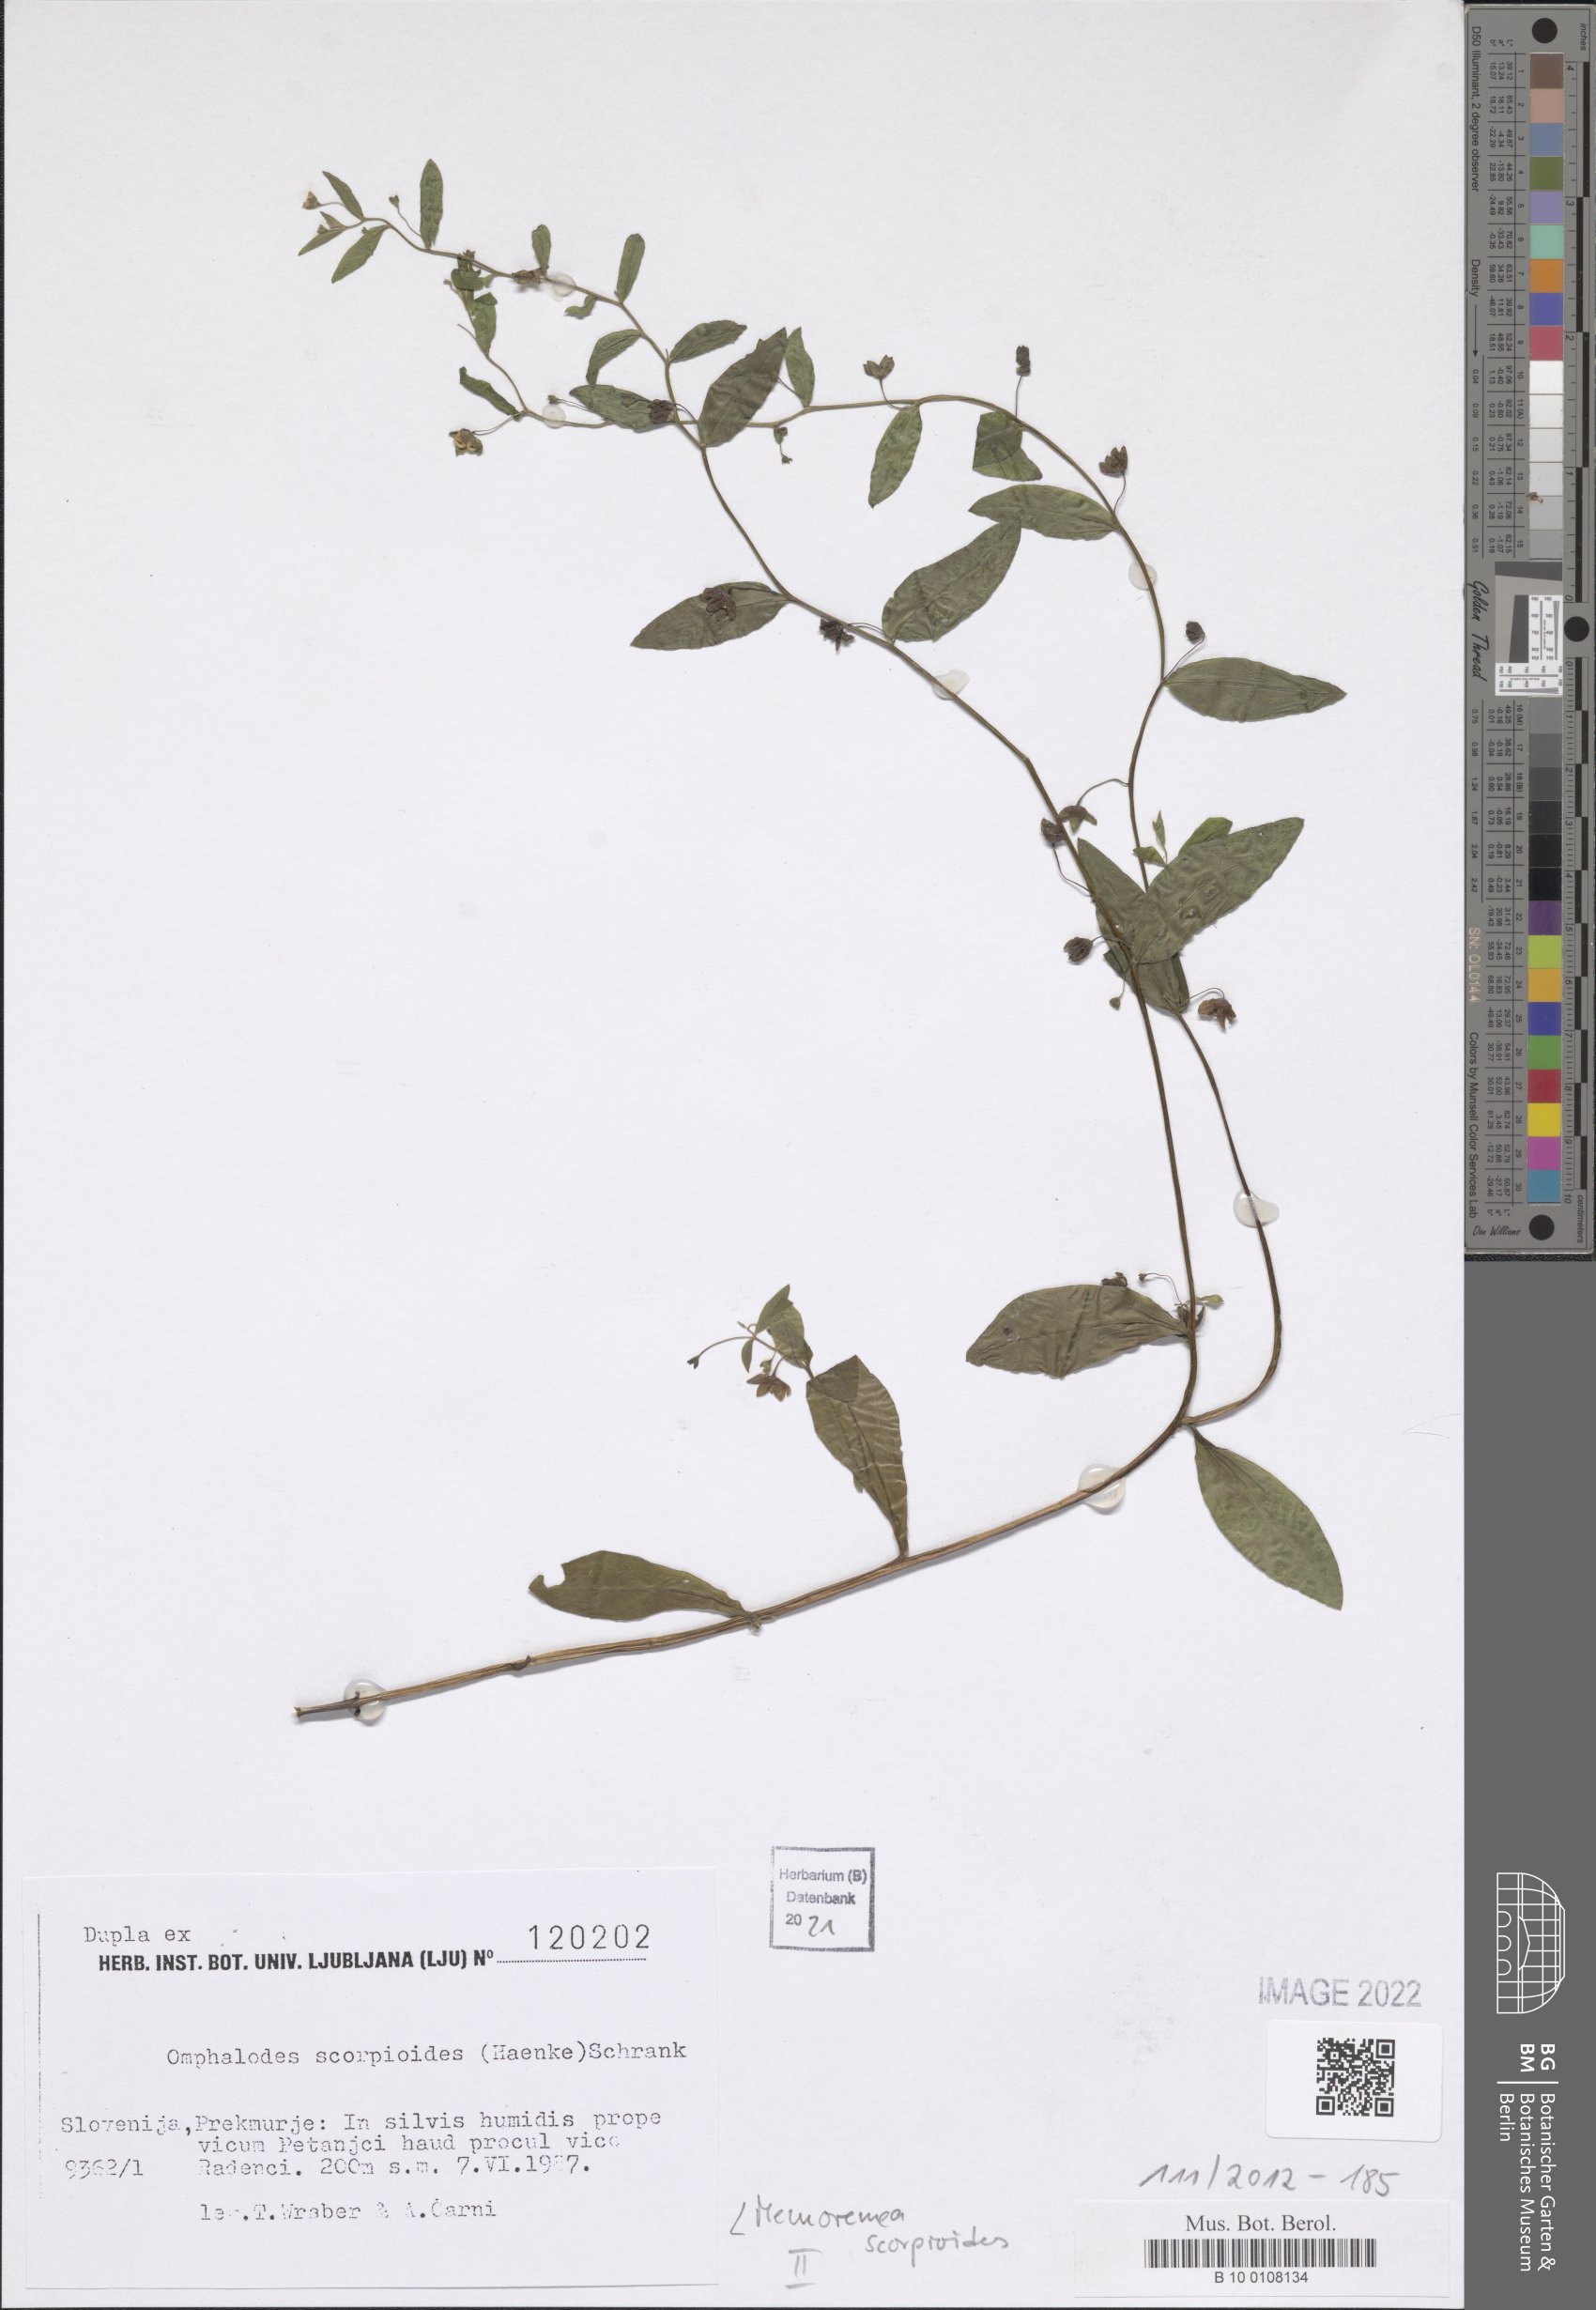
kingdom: Plantae
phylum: Tracheophyta
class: Magnoliopsida
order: Boraginales
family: Boraginaceae
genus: Memoremea
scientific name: Memoremea scorpioides
